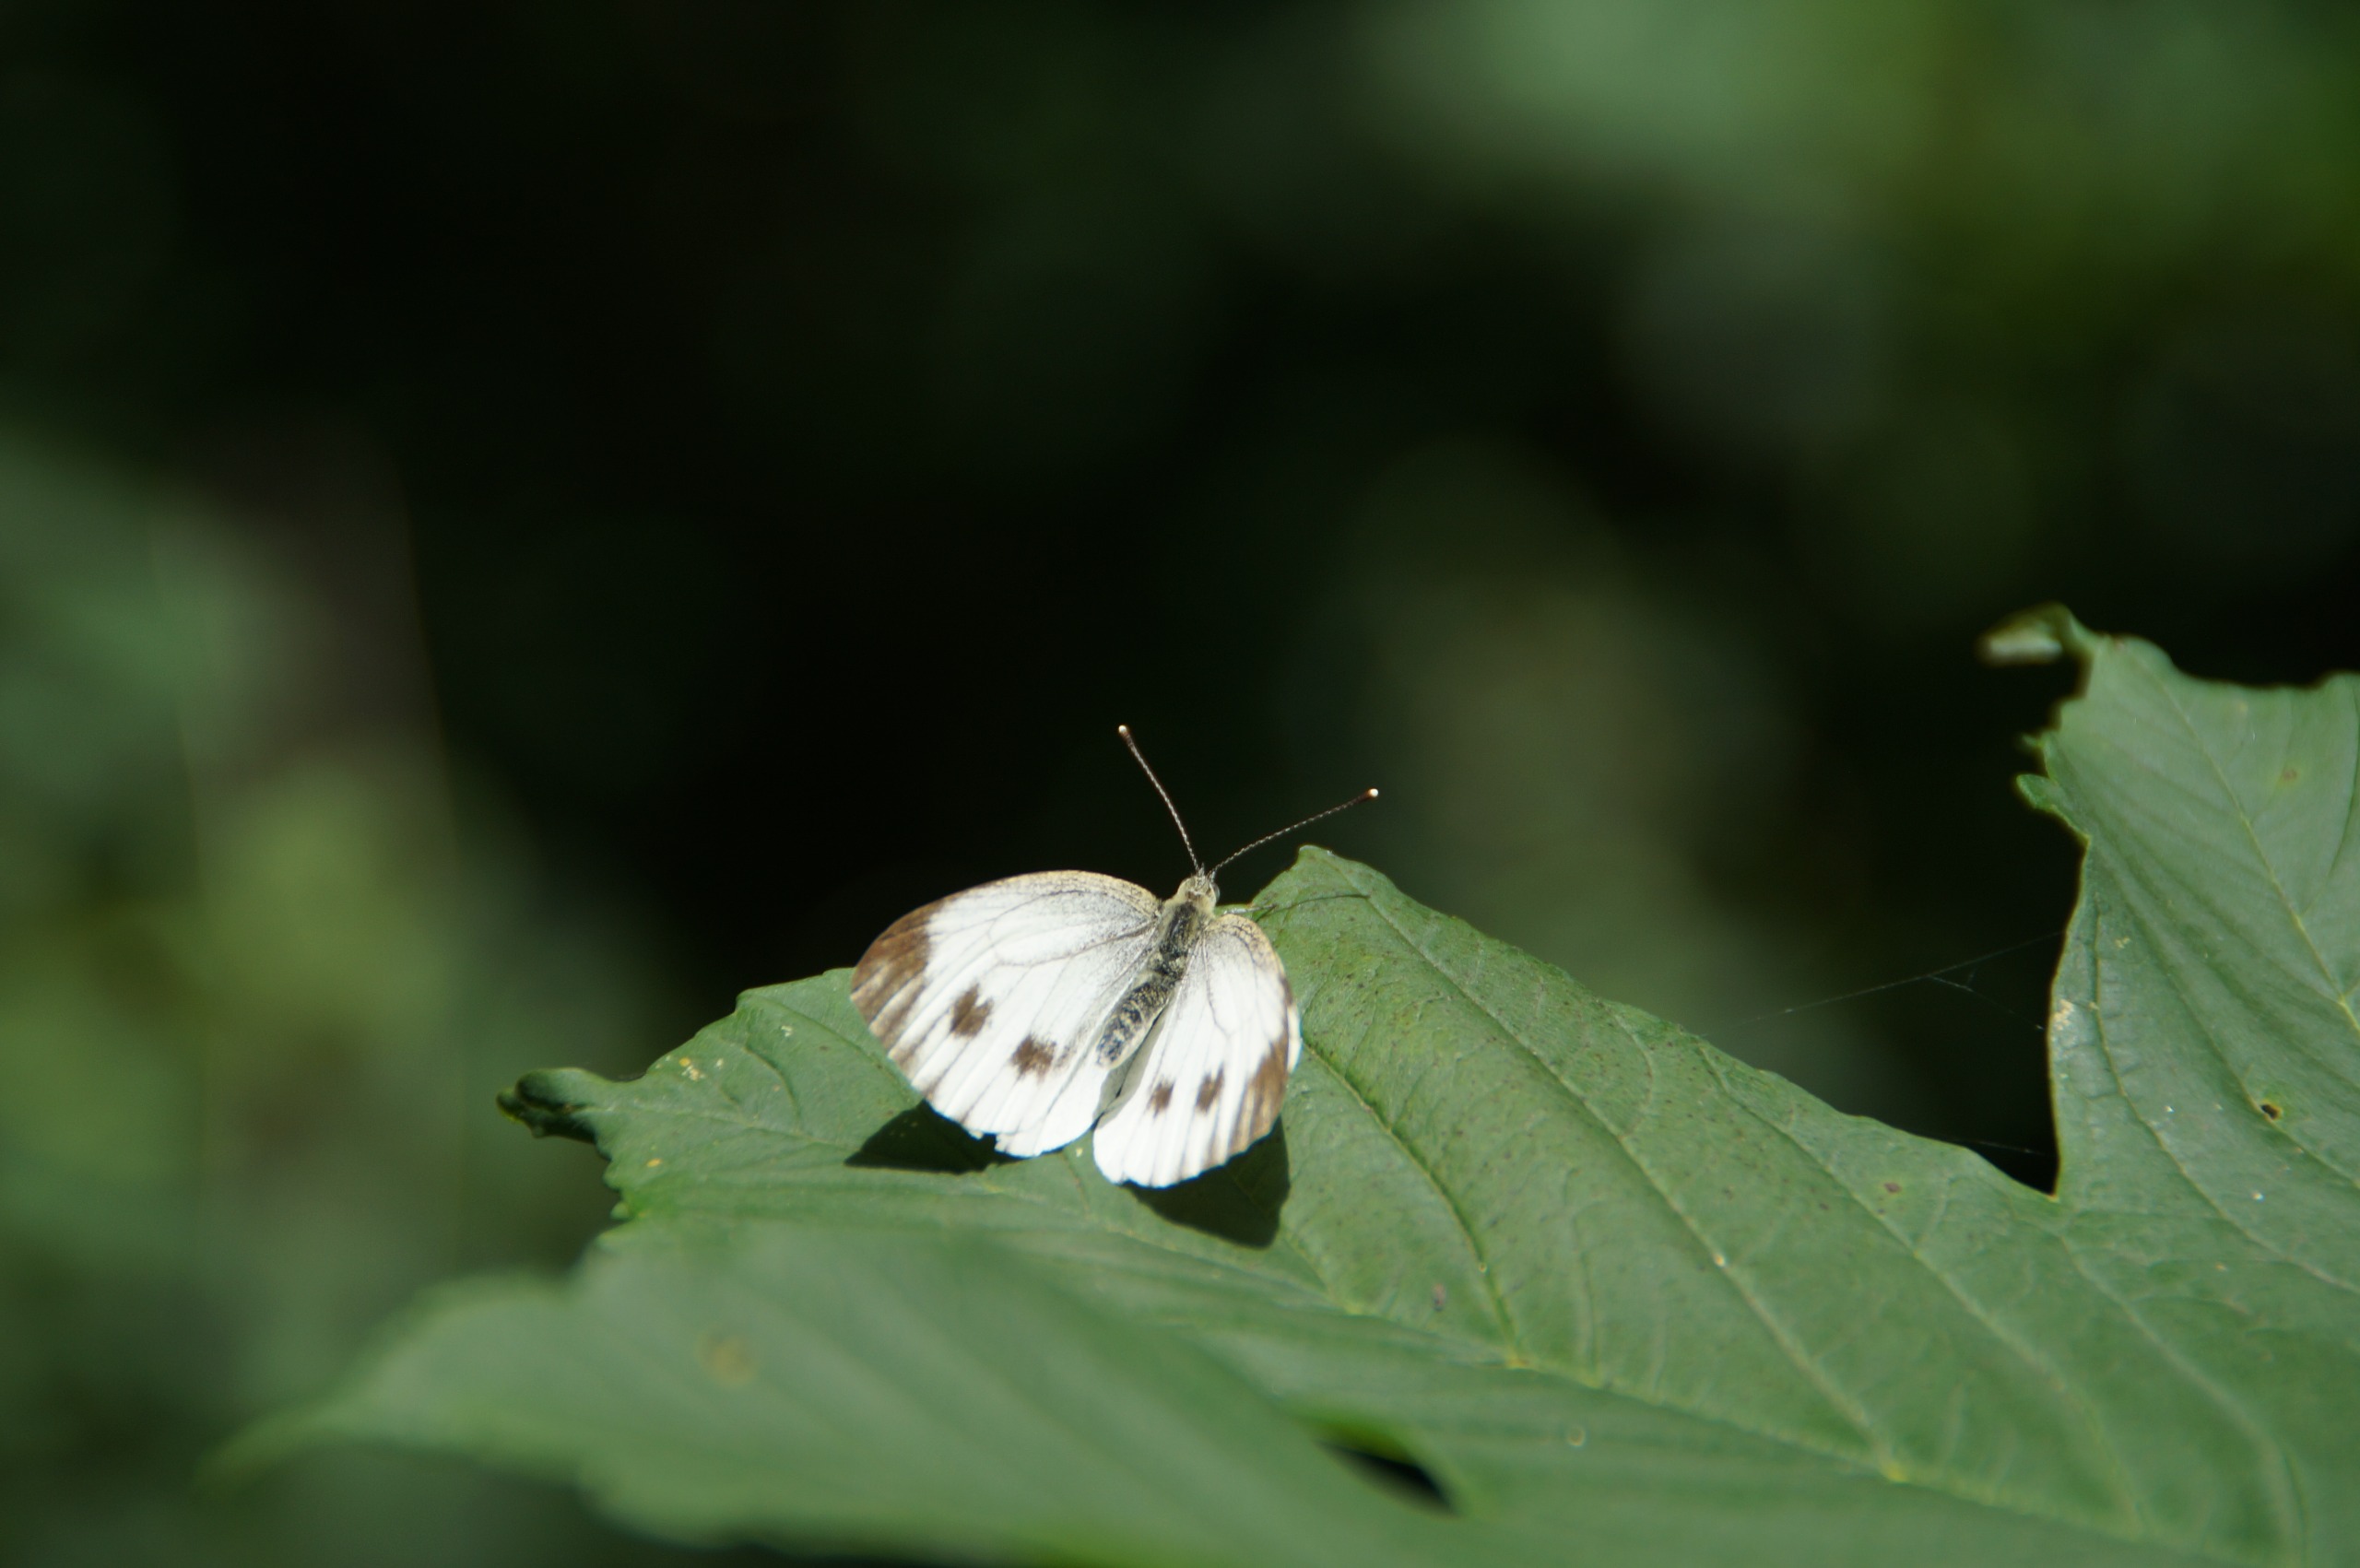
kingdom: Animalia
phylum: Arthropoda
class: Insecta
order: Lepidoptera
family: Pieridae
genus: Pieris
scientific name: Pieris napi
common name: Grønåret kålsommerfugl
